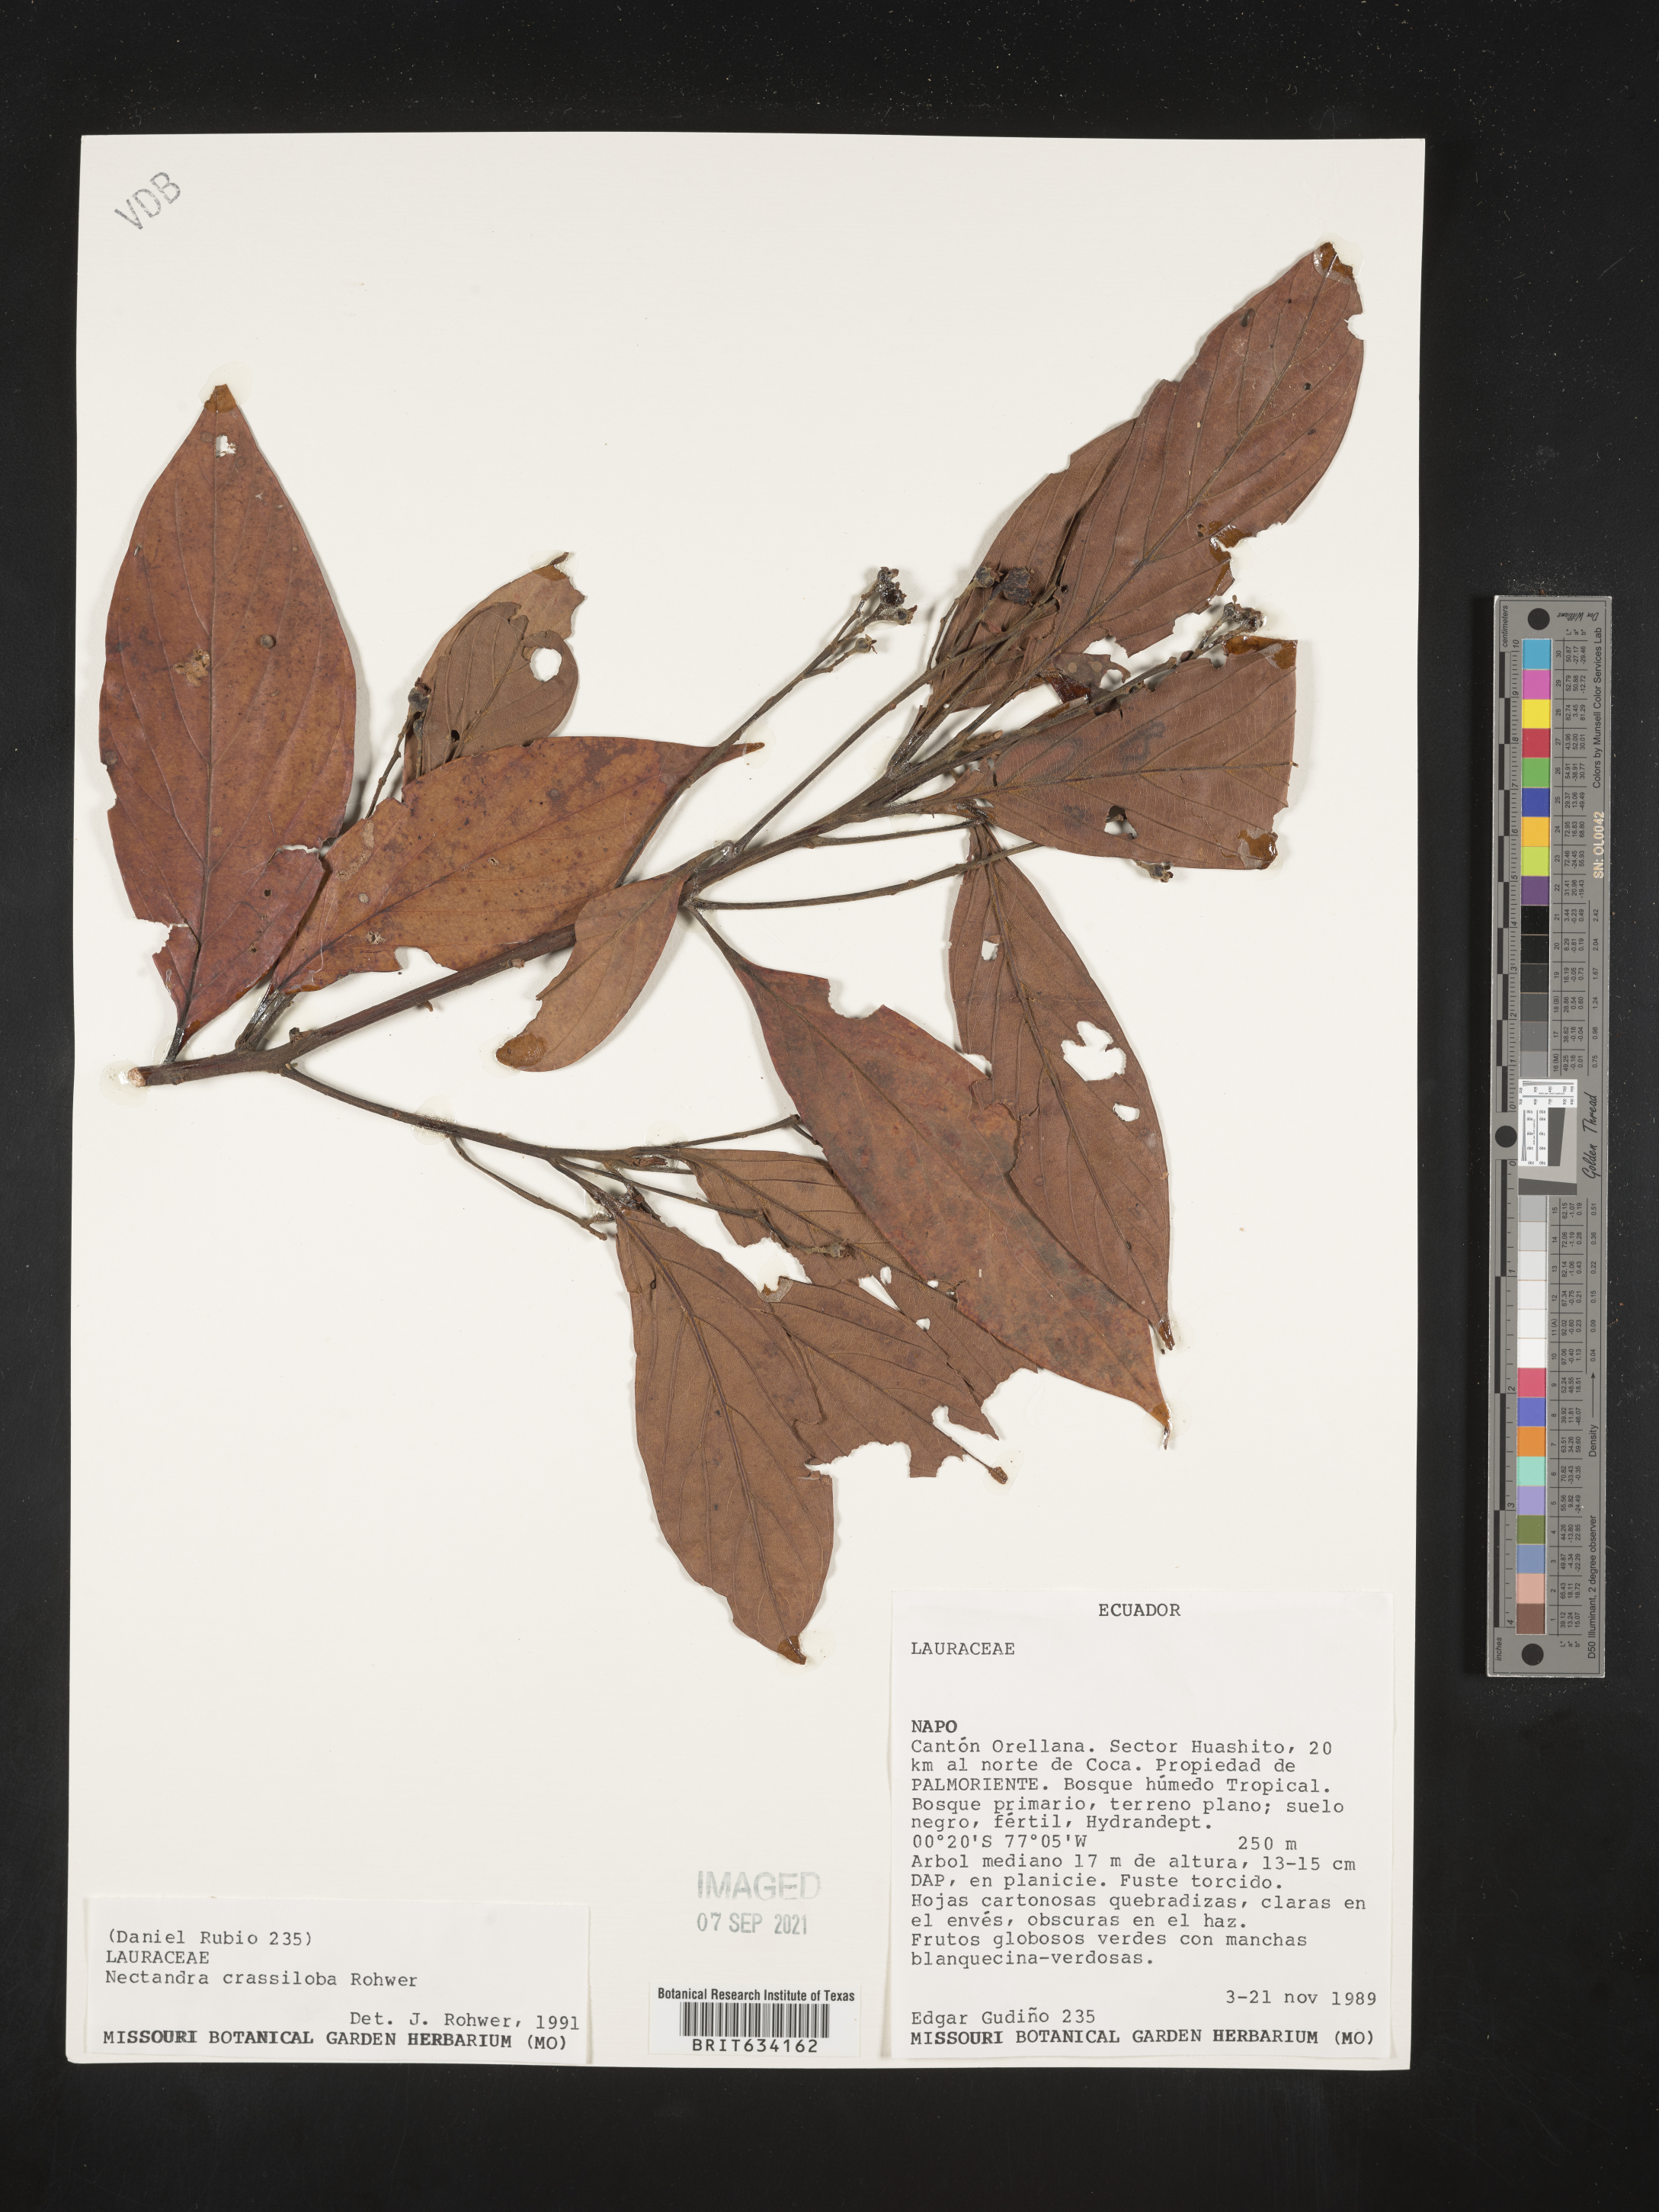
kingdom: Plantae
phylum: Tracheophyta
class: Magnoliopsida
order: Laurales
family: Lauraceae
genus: Nectandra
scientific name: Nectandra
